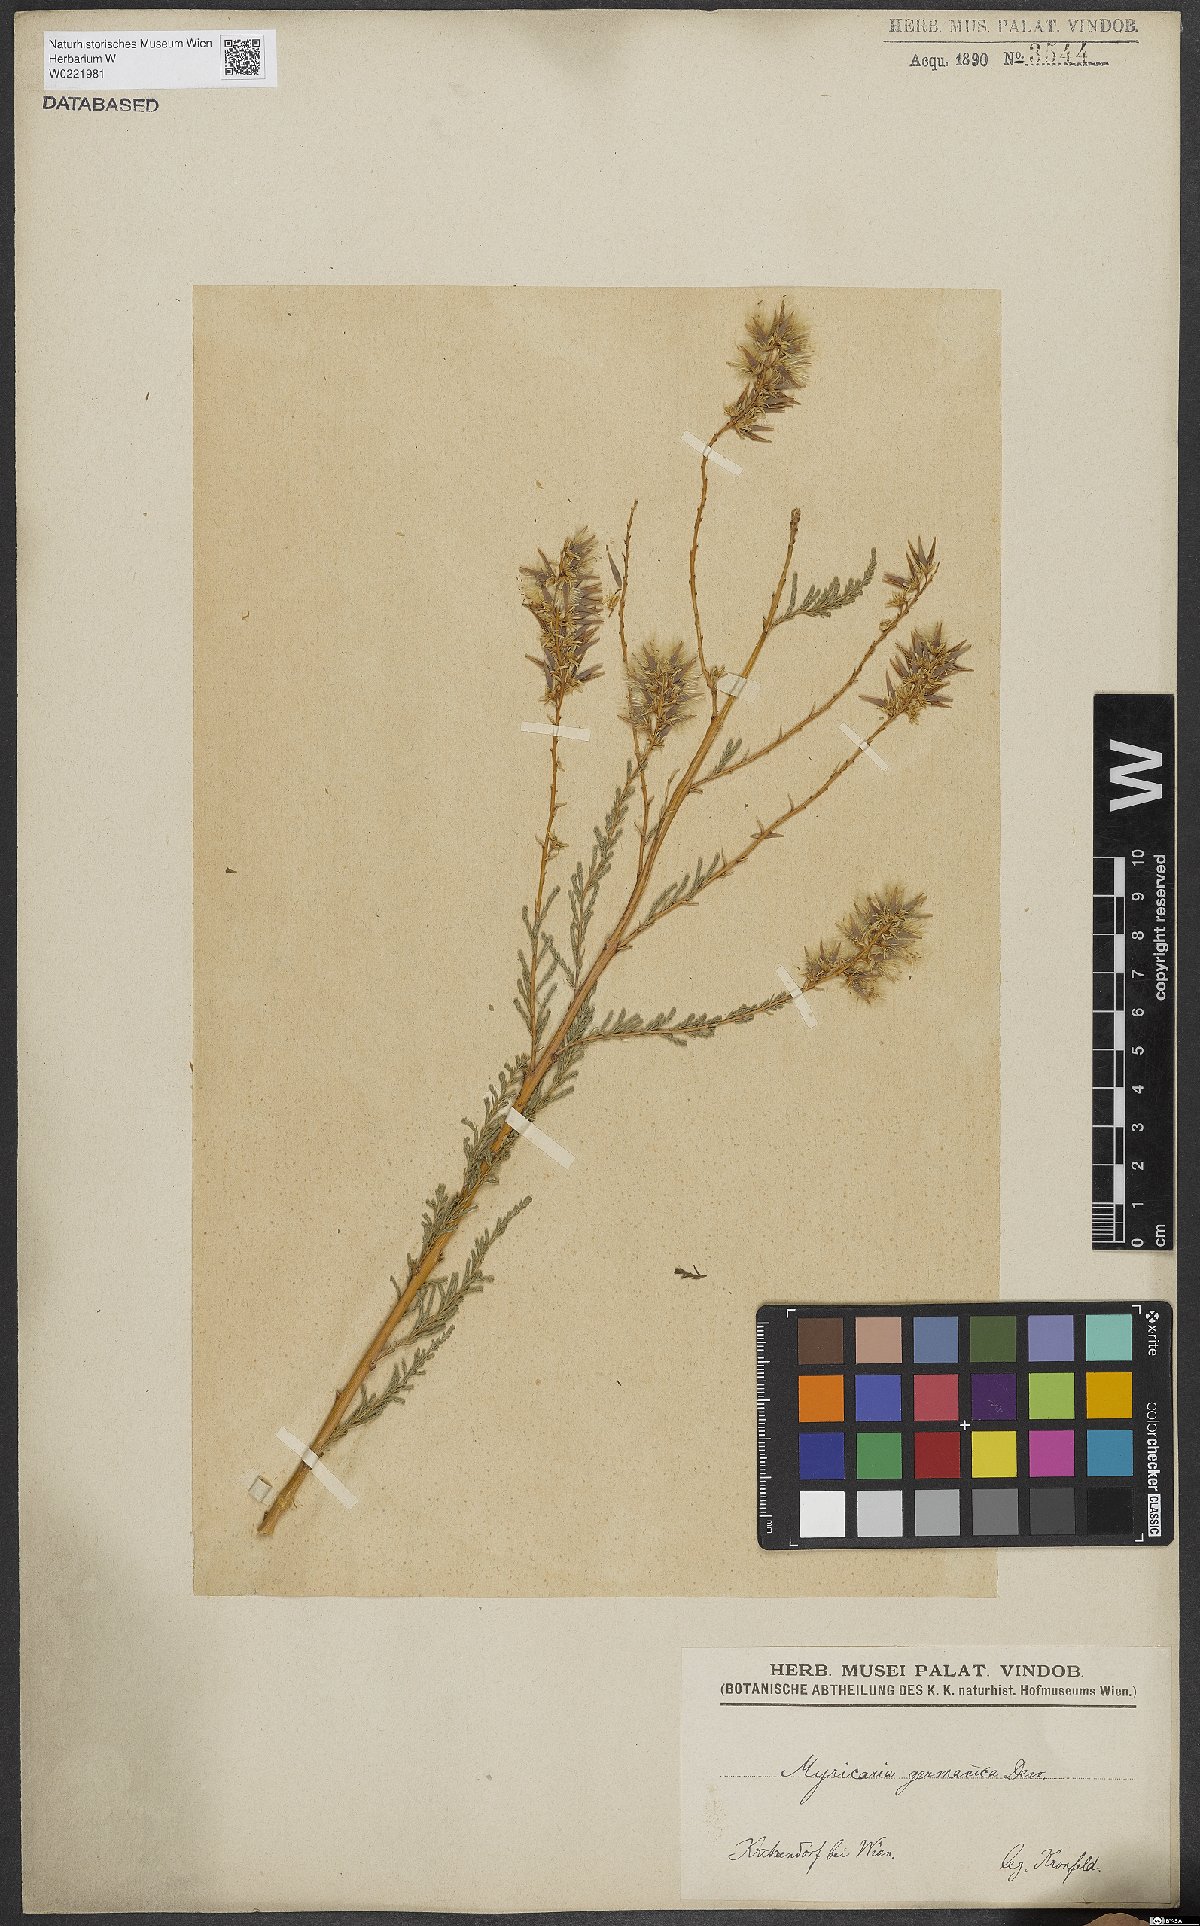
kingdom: Plantae
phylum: Tracheophyta
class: Magnoliopsida
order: Caryophyllales
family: Tamaricaceae
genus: Myricaria
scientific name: Myricaria germanica
